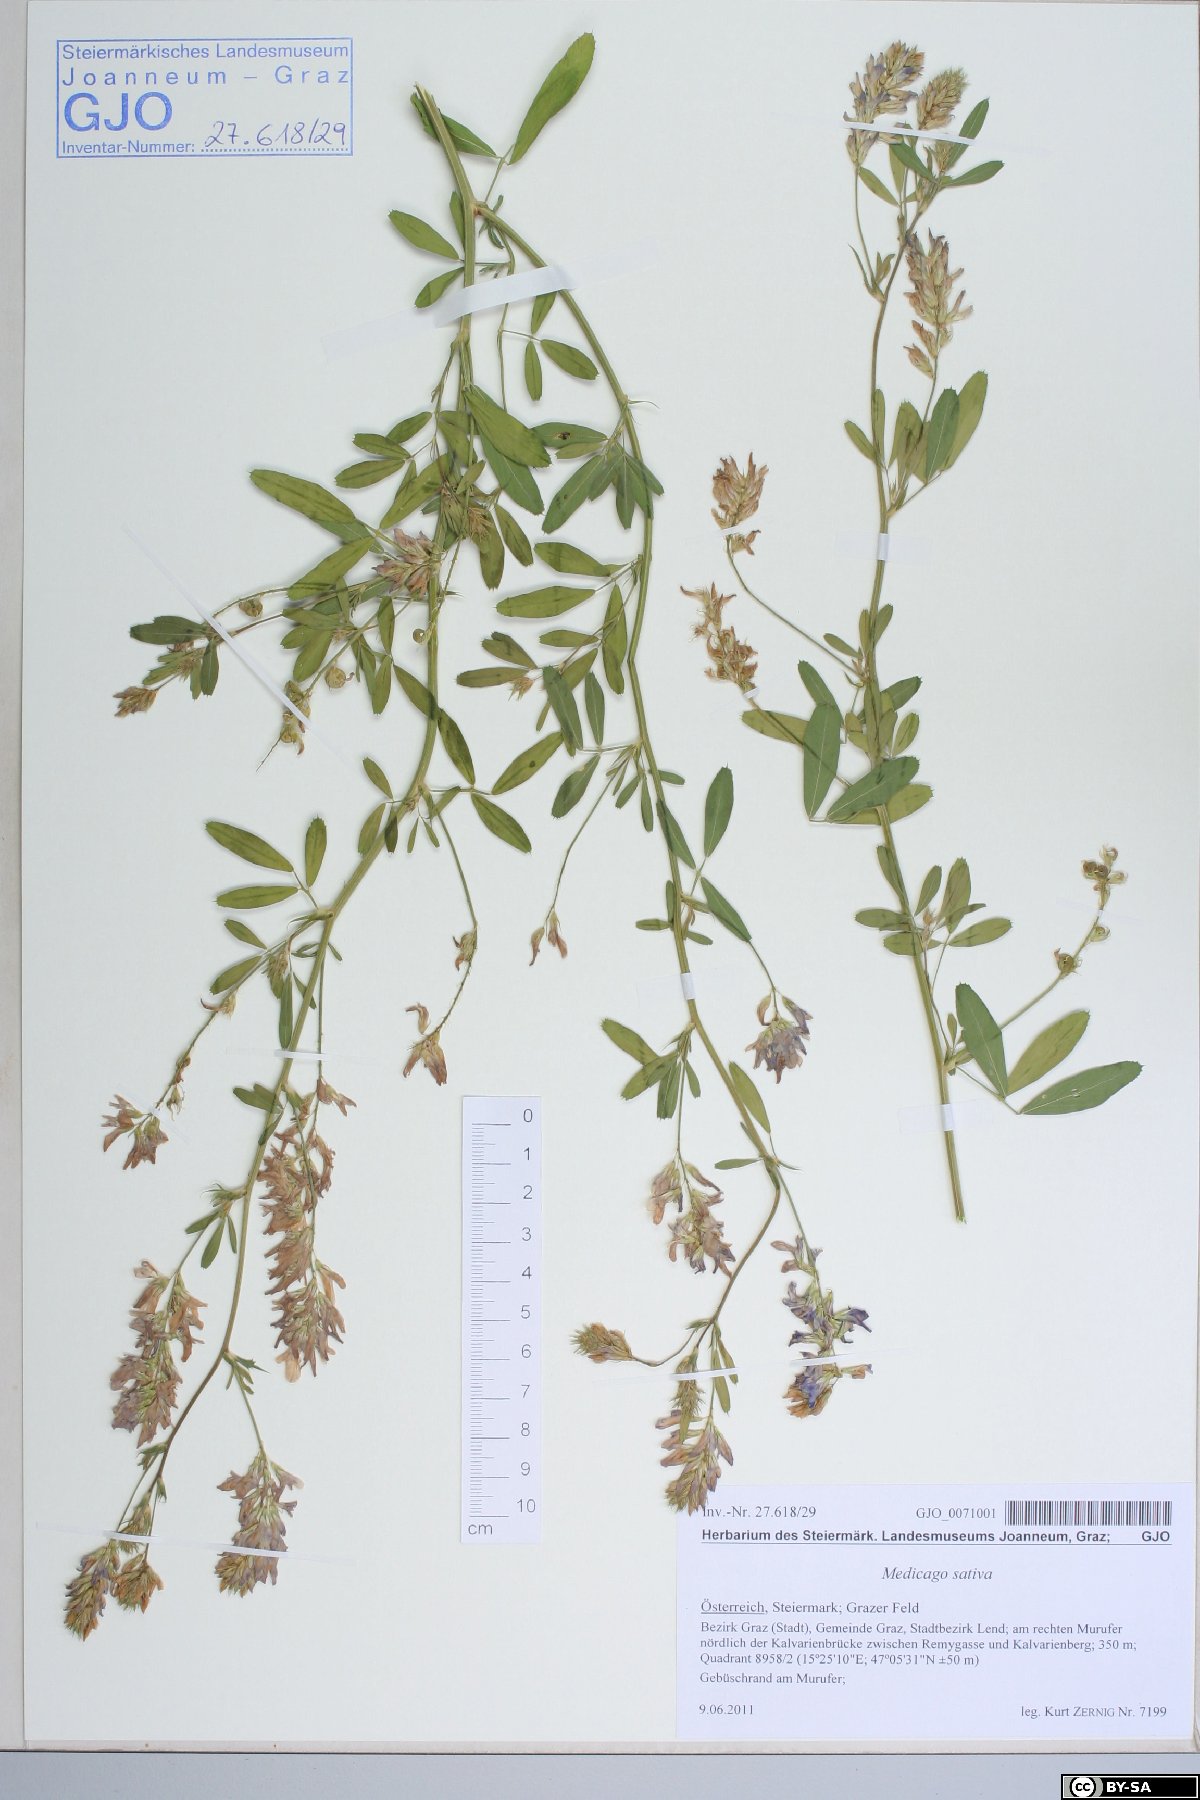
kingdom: Plantae
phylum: Tracheophyta
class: Magnoliopsida
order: Fabales
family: Fabaceae
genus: Medicago
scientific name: Medicago sativa
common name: Alfalfa
